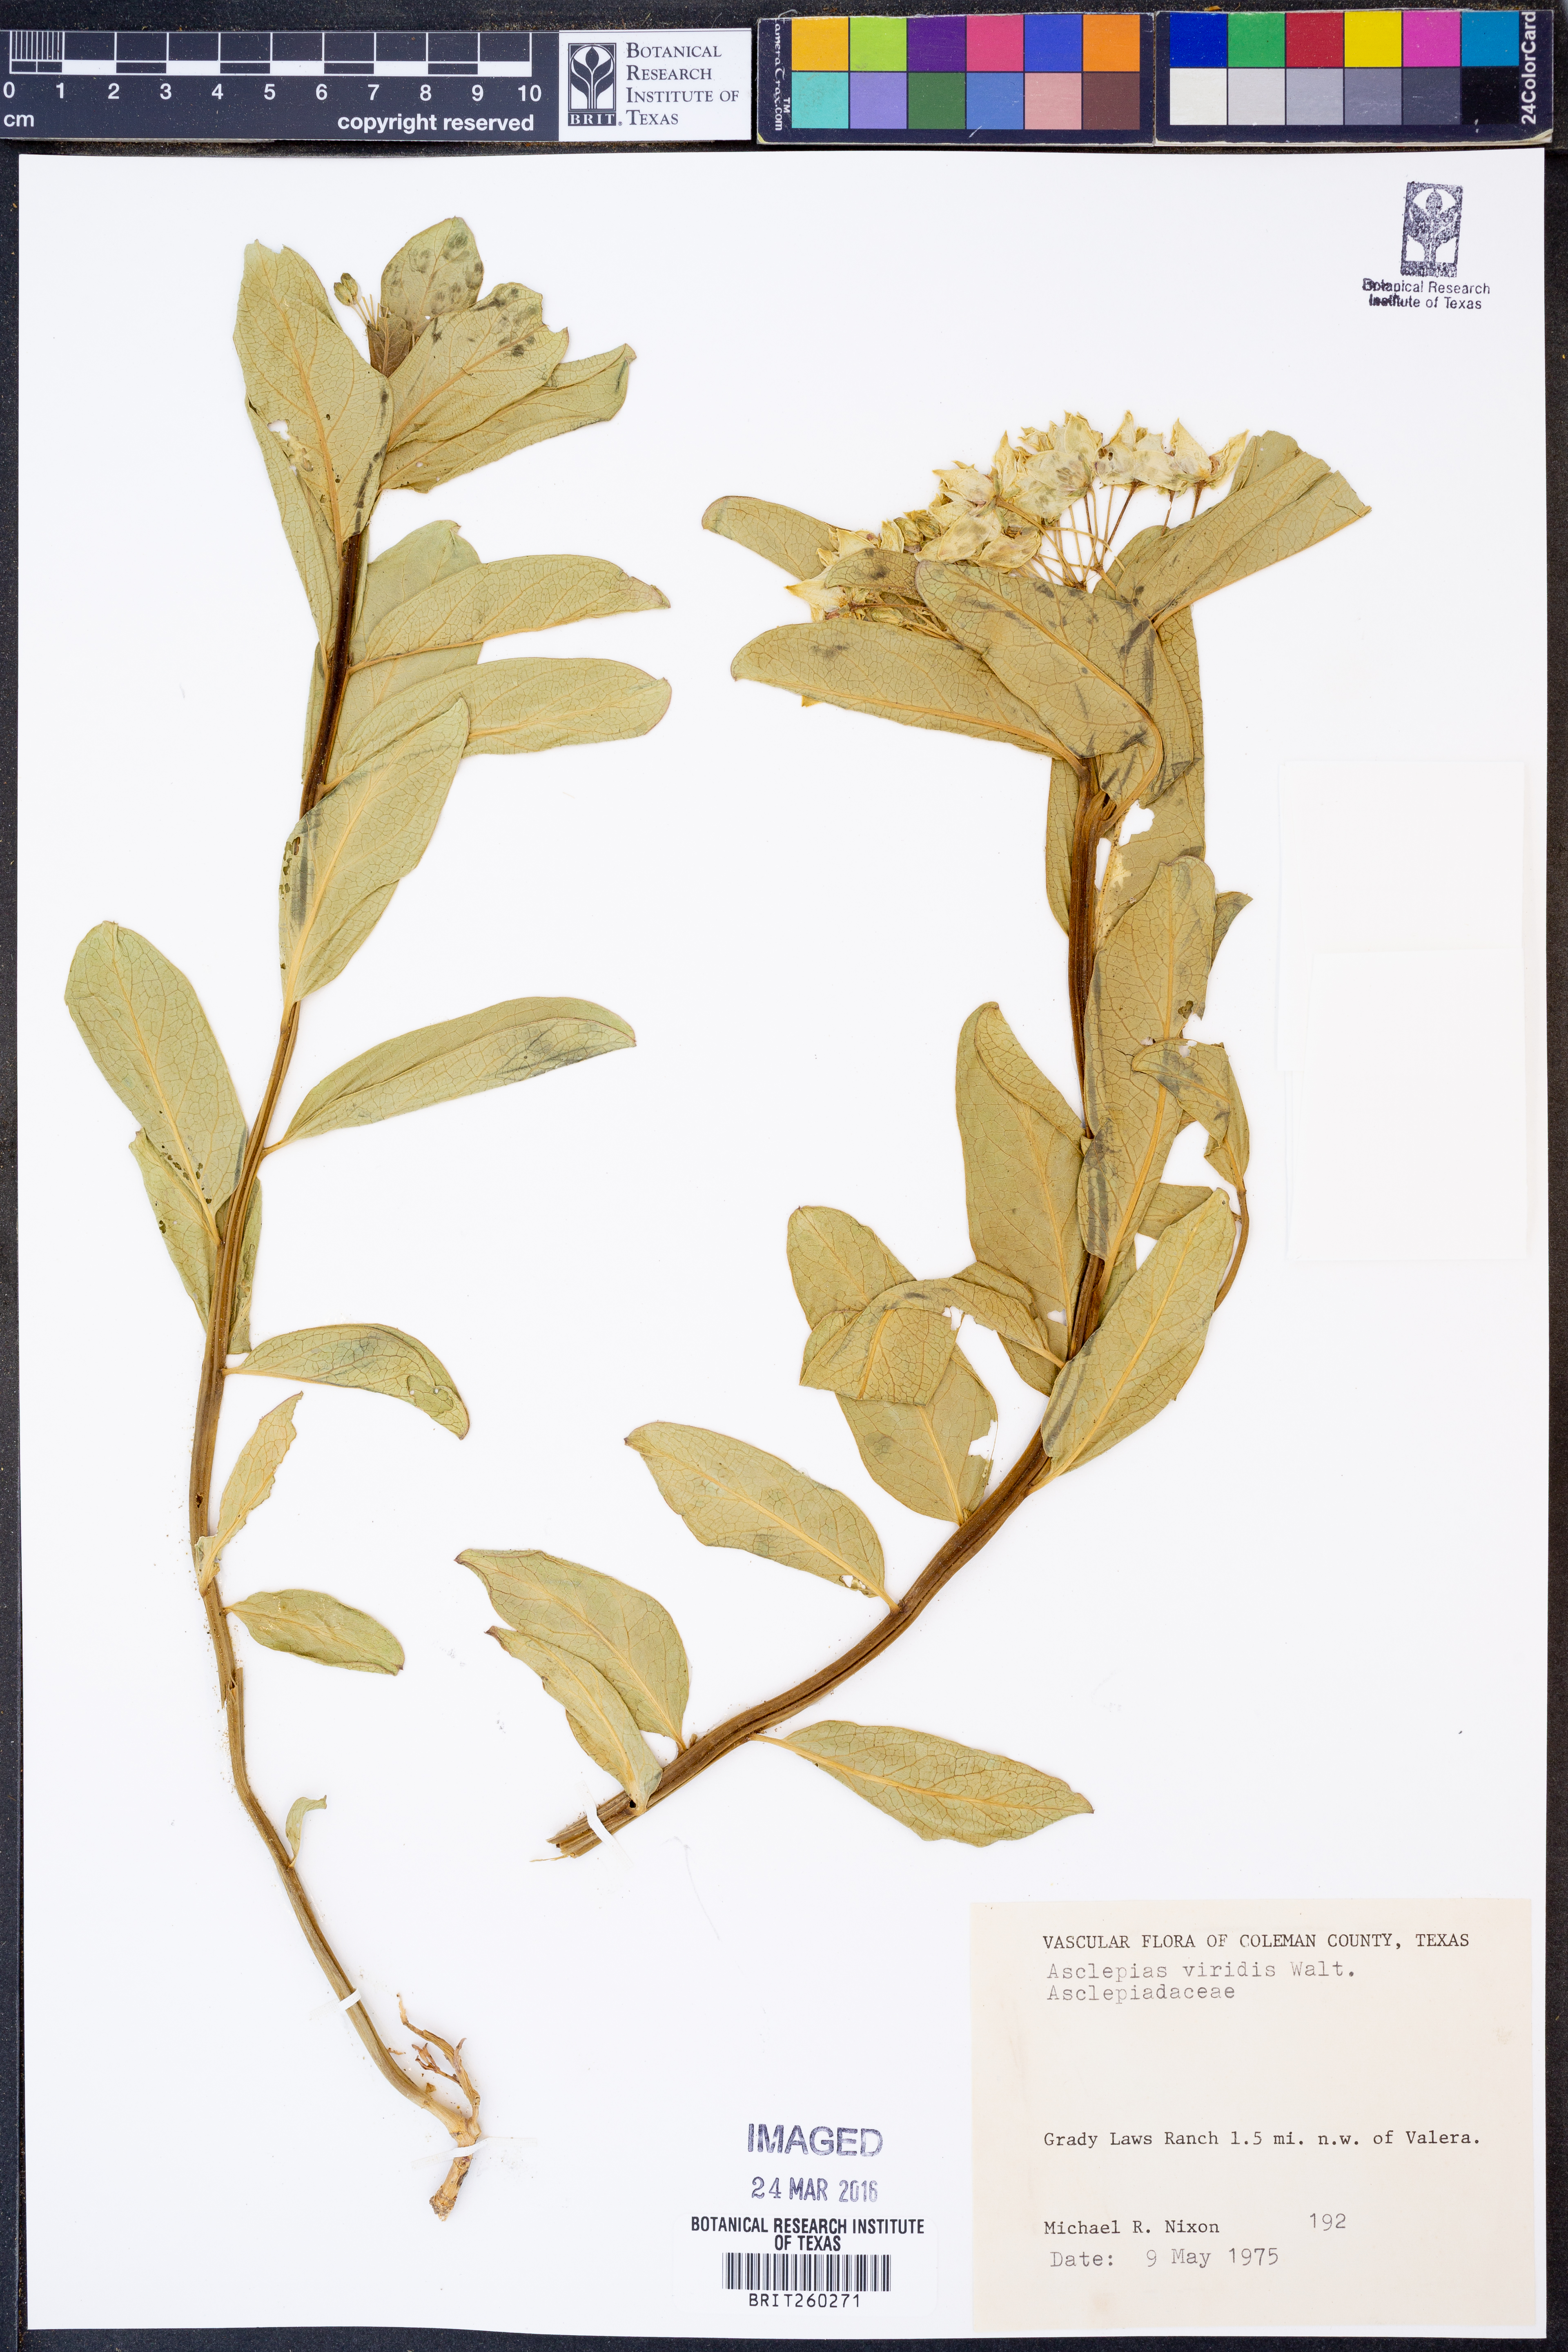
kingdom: Plantae
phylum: Tracheophyta
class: Magnoliopsida
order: Gentianales
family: Apocynaceae
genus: Asclepias
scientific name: Asclepias viridis
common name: Antelope-horns
